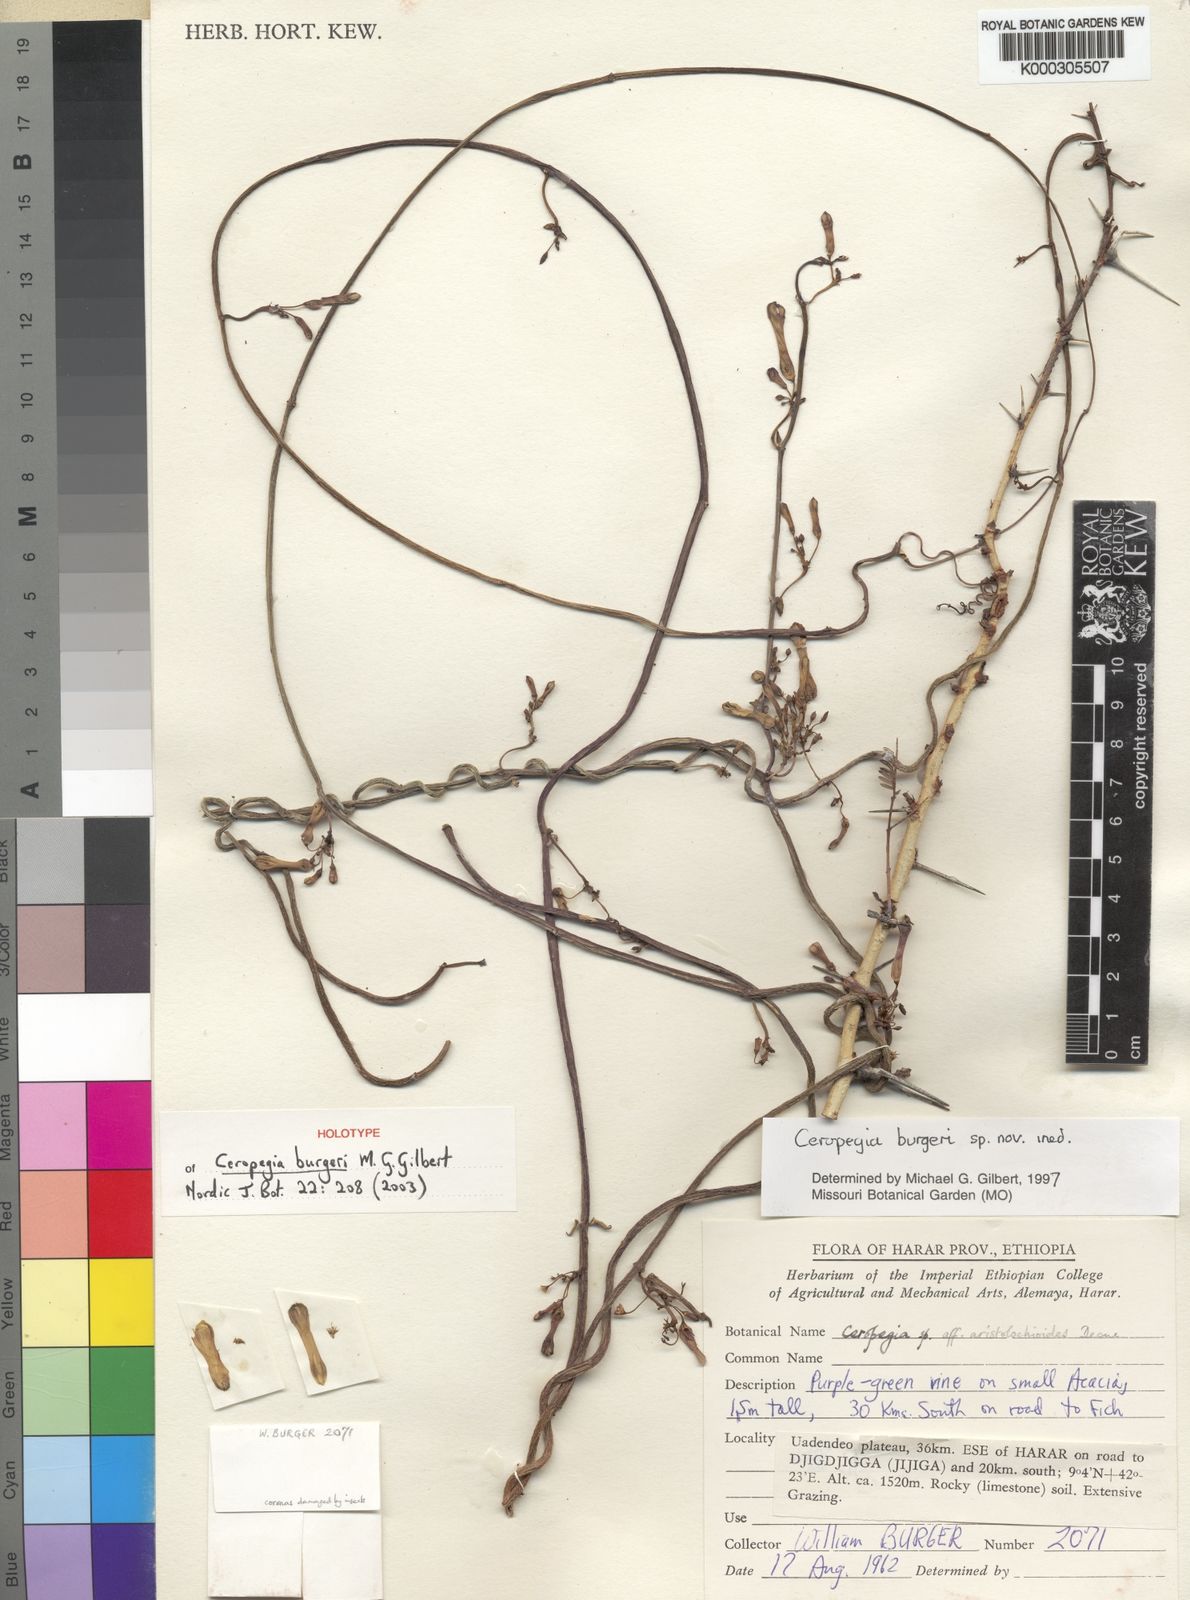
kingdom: Plantae
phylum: Tracheophyta
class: Magnoliopsida
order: Gentianales
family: Apocynaceae
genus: Ceropegia
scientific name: Ceropegia seticorona
